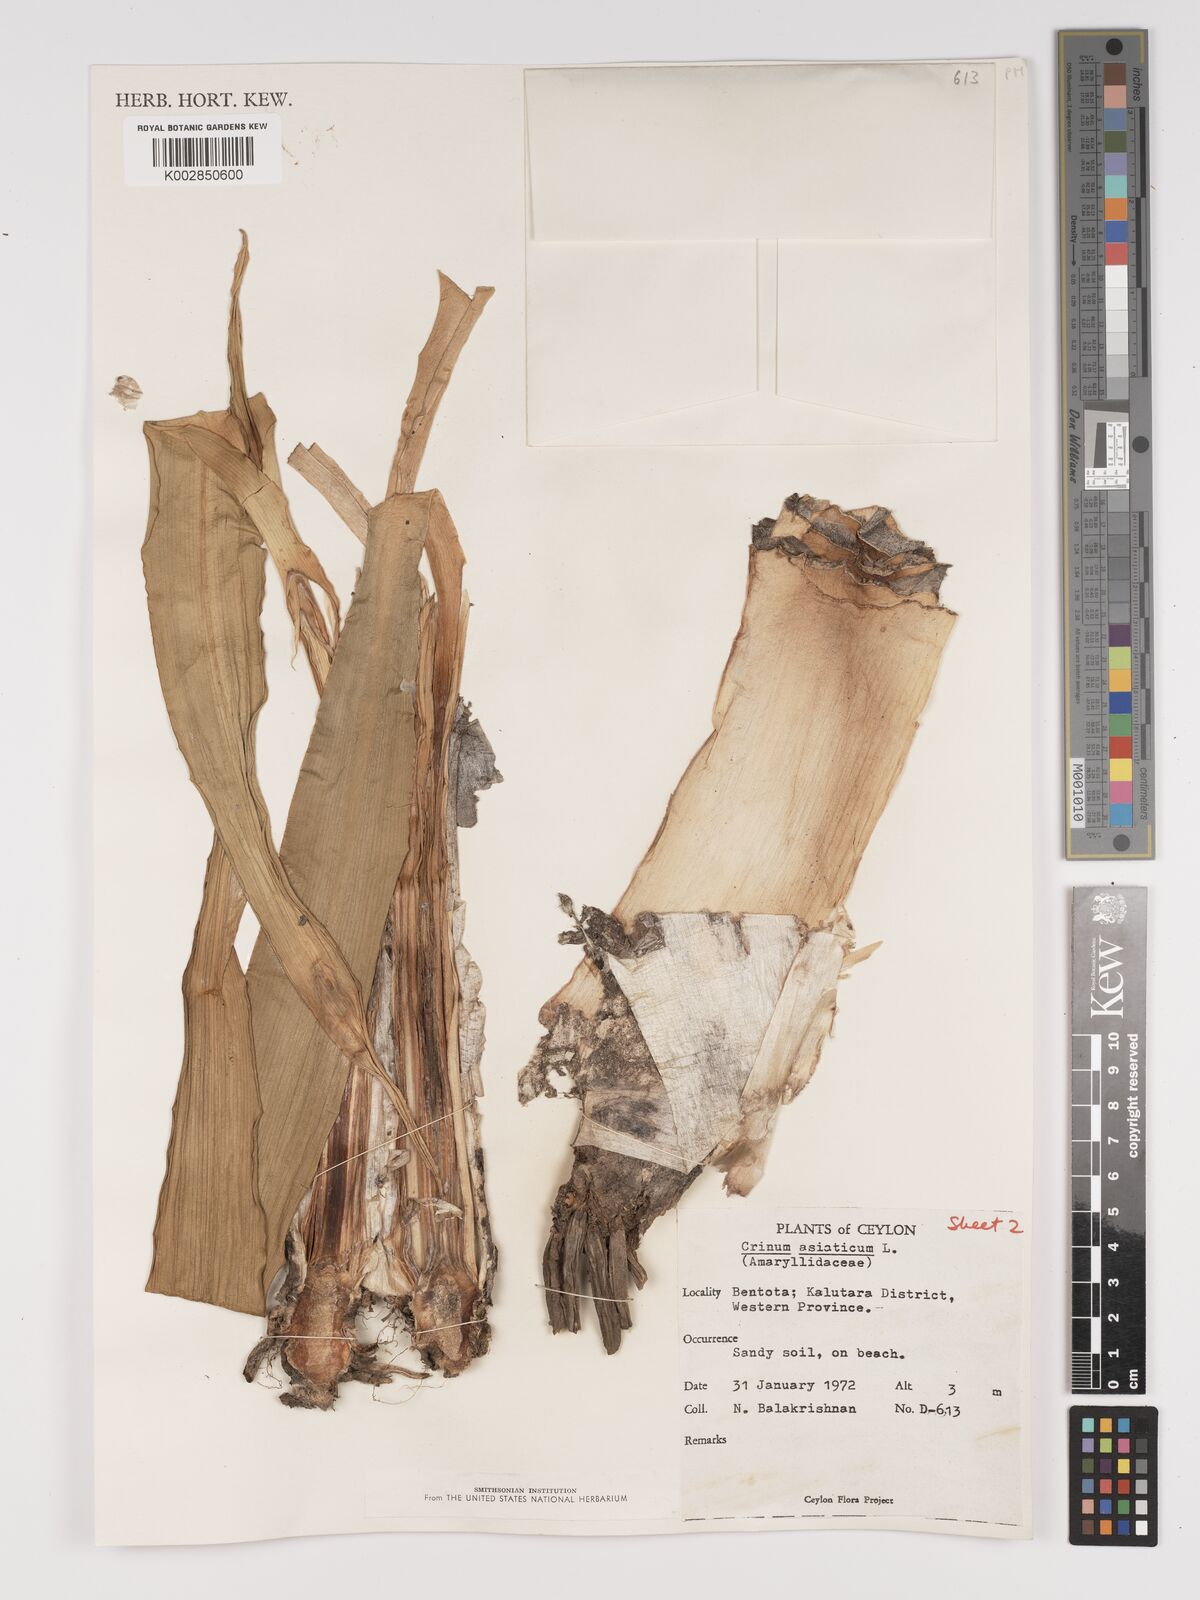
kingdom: Plantae
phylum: Tracheophyta
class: Liliopsida
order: Asparagales
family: Amaryllidaceae
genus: Crinum
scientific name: Crinum asiaticum
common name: Poisonbulb
